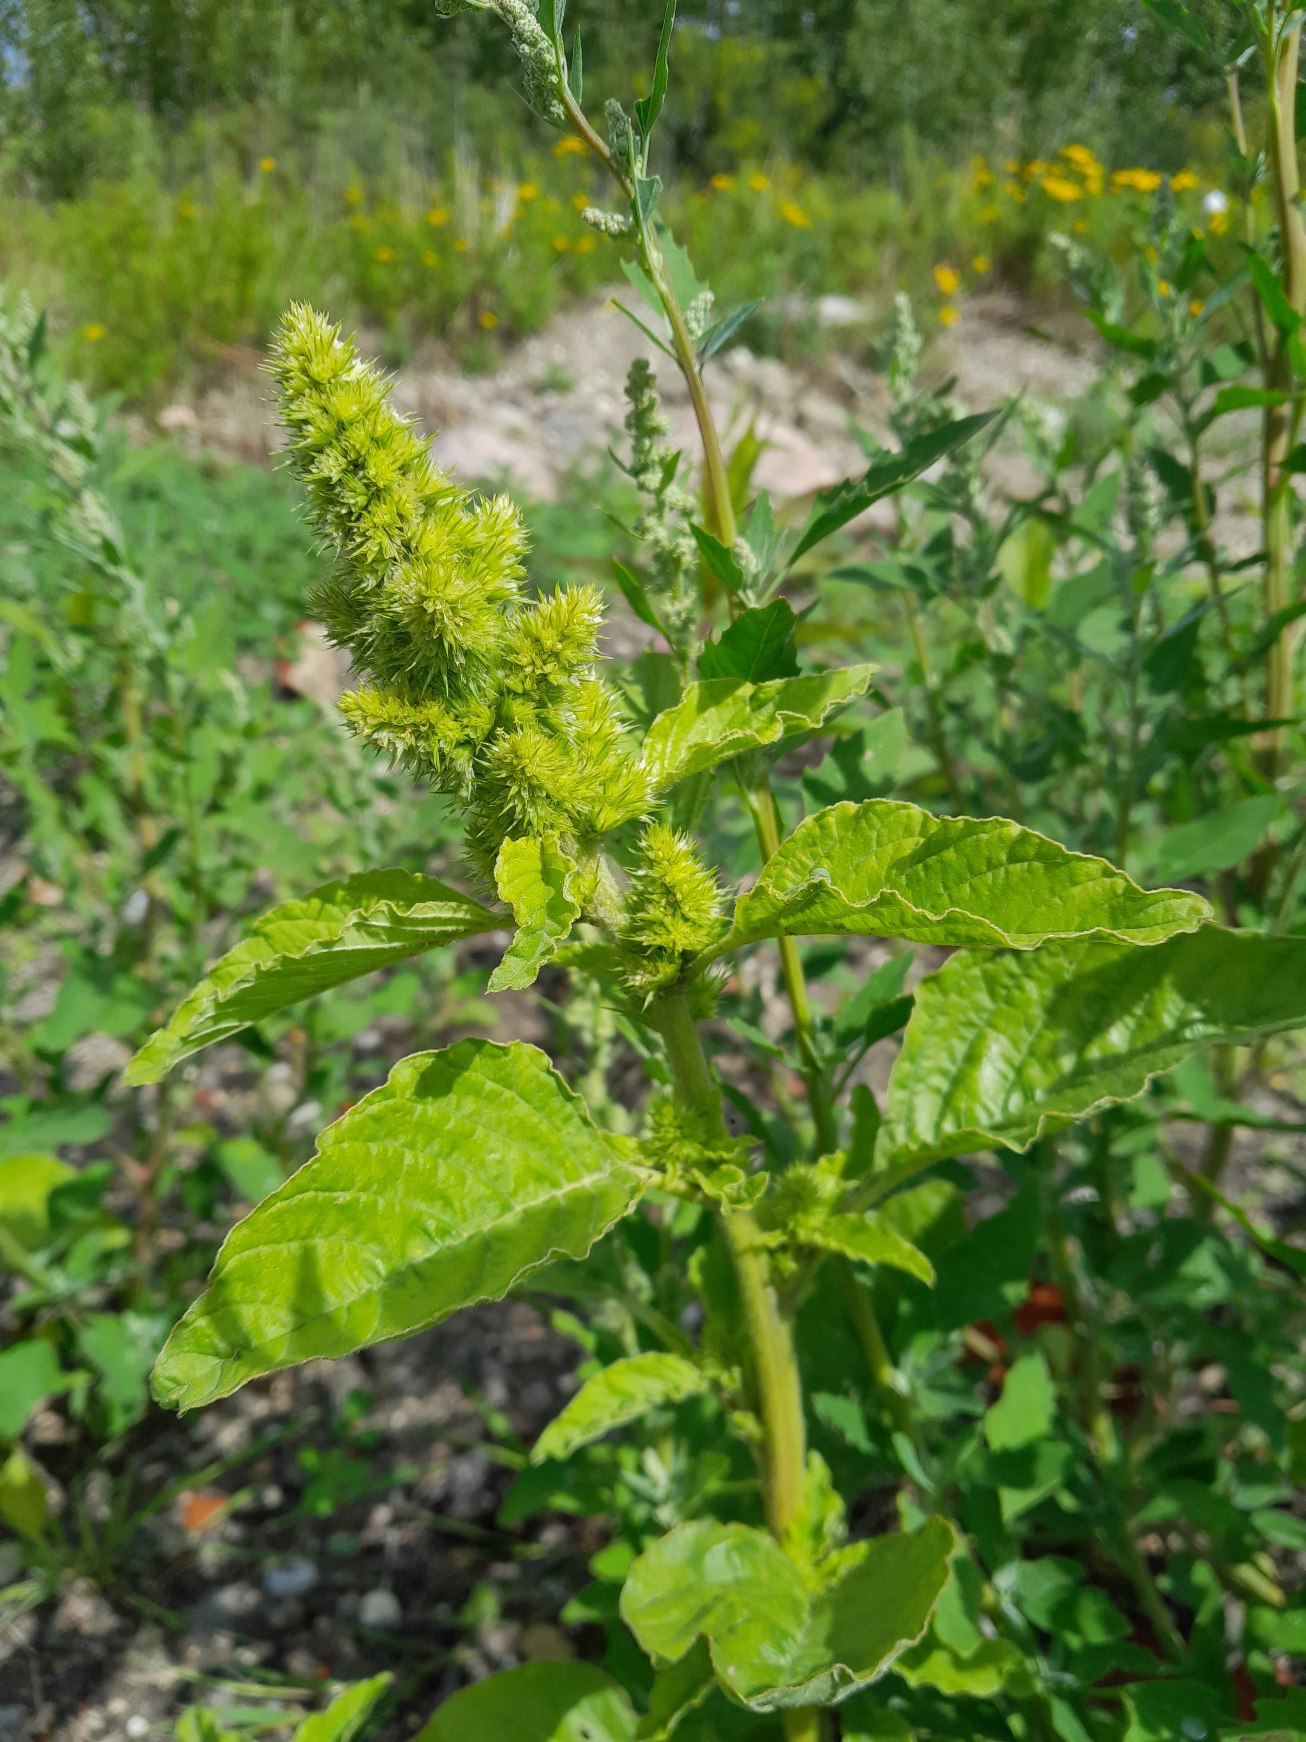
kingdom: Plantae
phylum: Tracheophyta
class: Magnoliopsida
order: Caryophyllales
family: Amaranthaceae
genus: Amaranthus
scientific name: Amaranthus retroflexus
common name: Opret amarant
